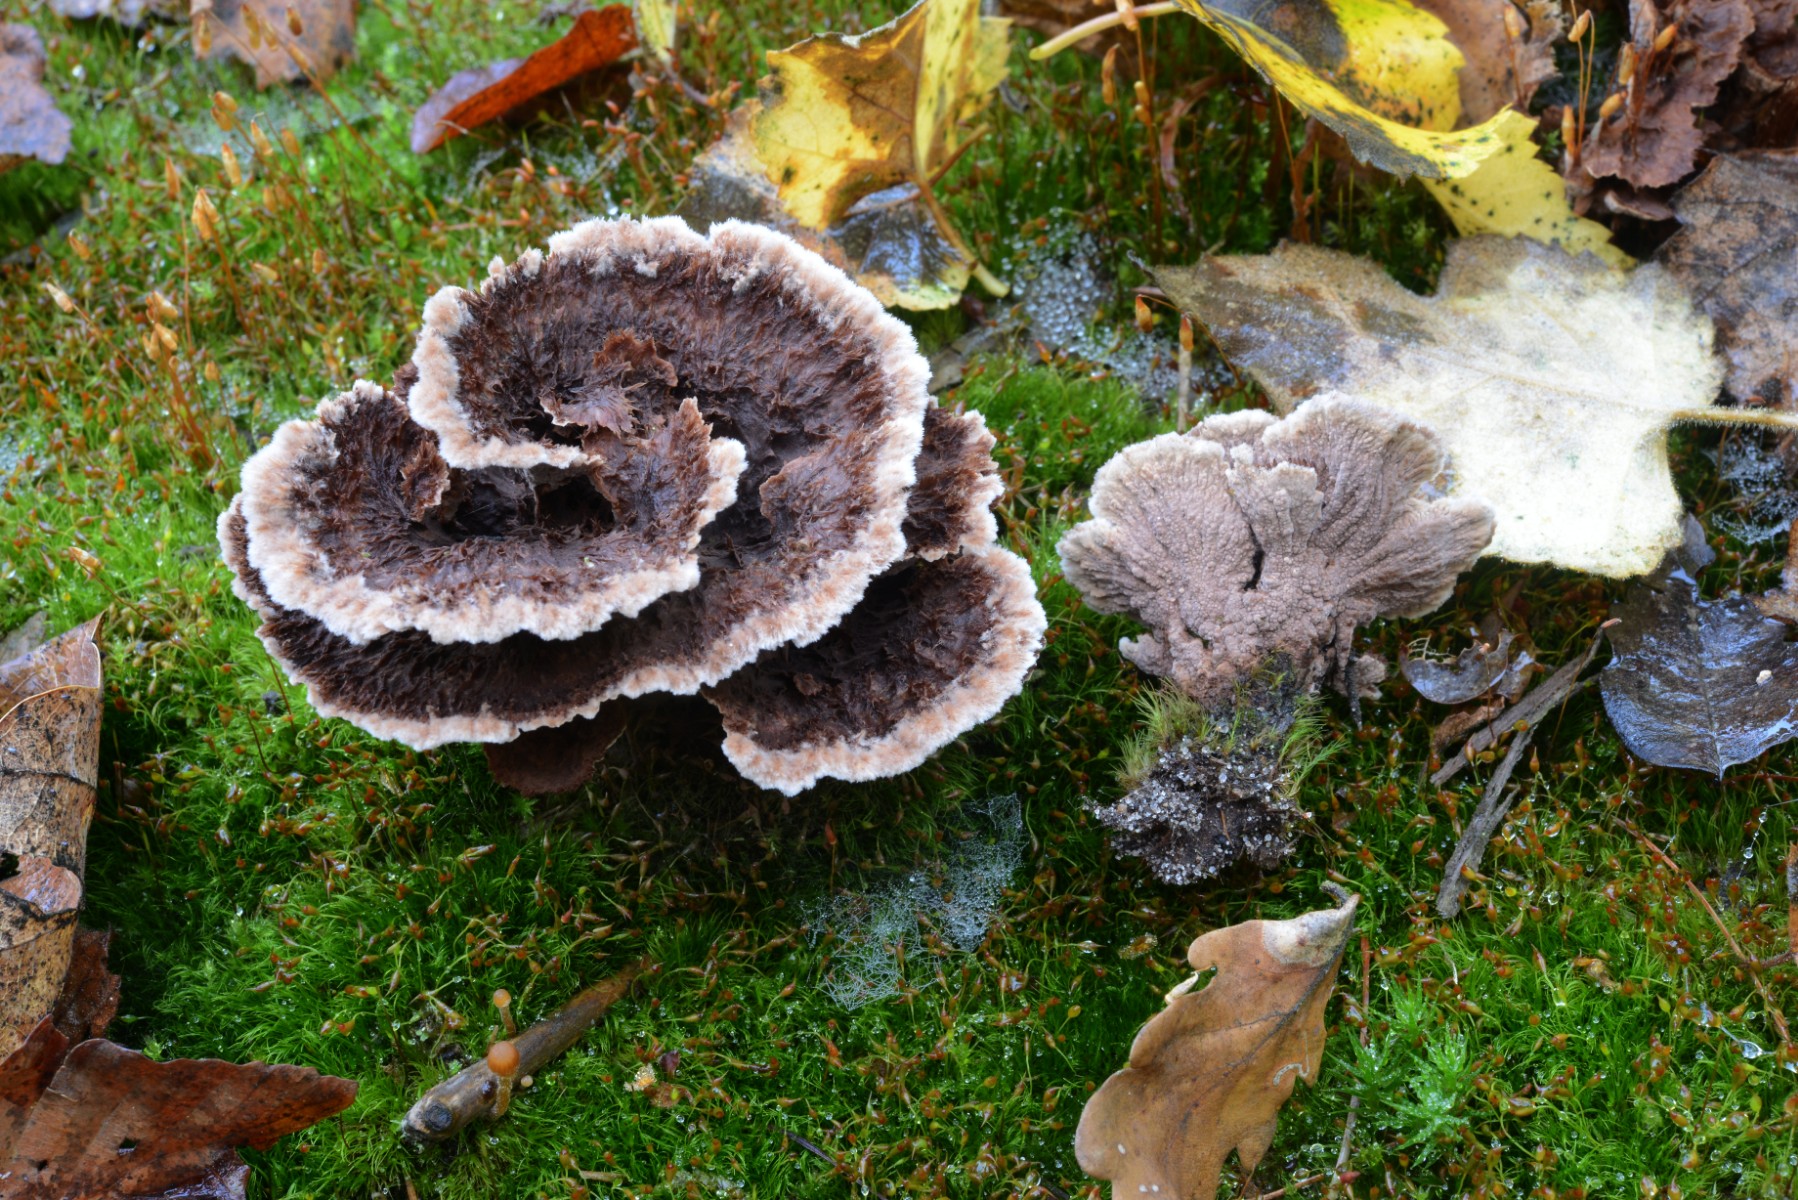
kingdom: Fungi
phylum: Basidiomycota
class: Agaricomycetes
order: Thelephorales
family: Thelephoraceae
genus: Thelephora
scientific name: Thelephora terrestris
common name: fliget frynsesvamp
